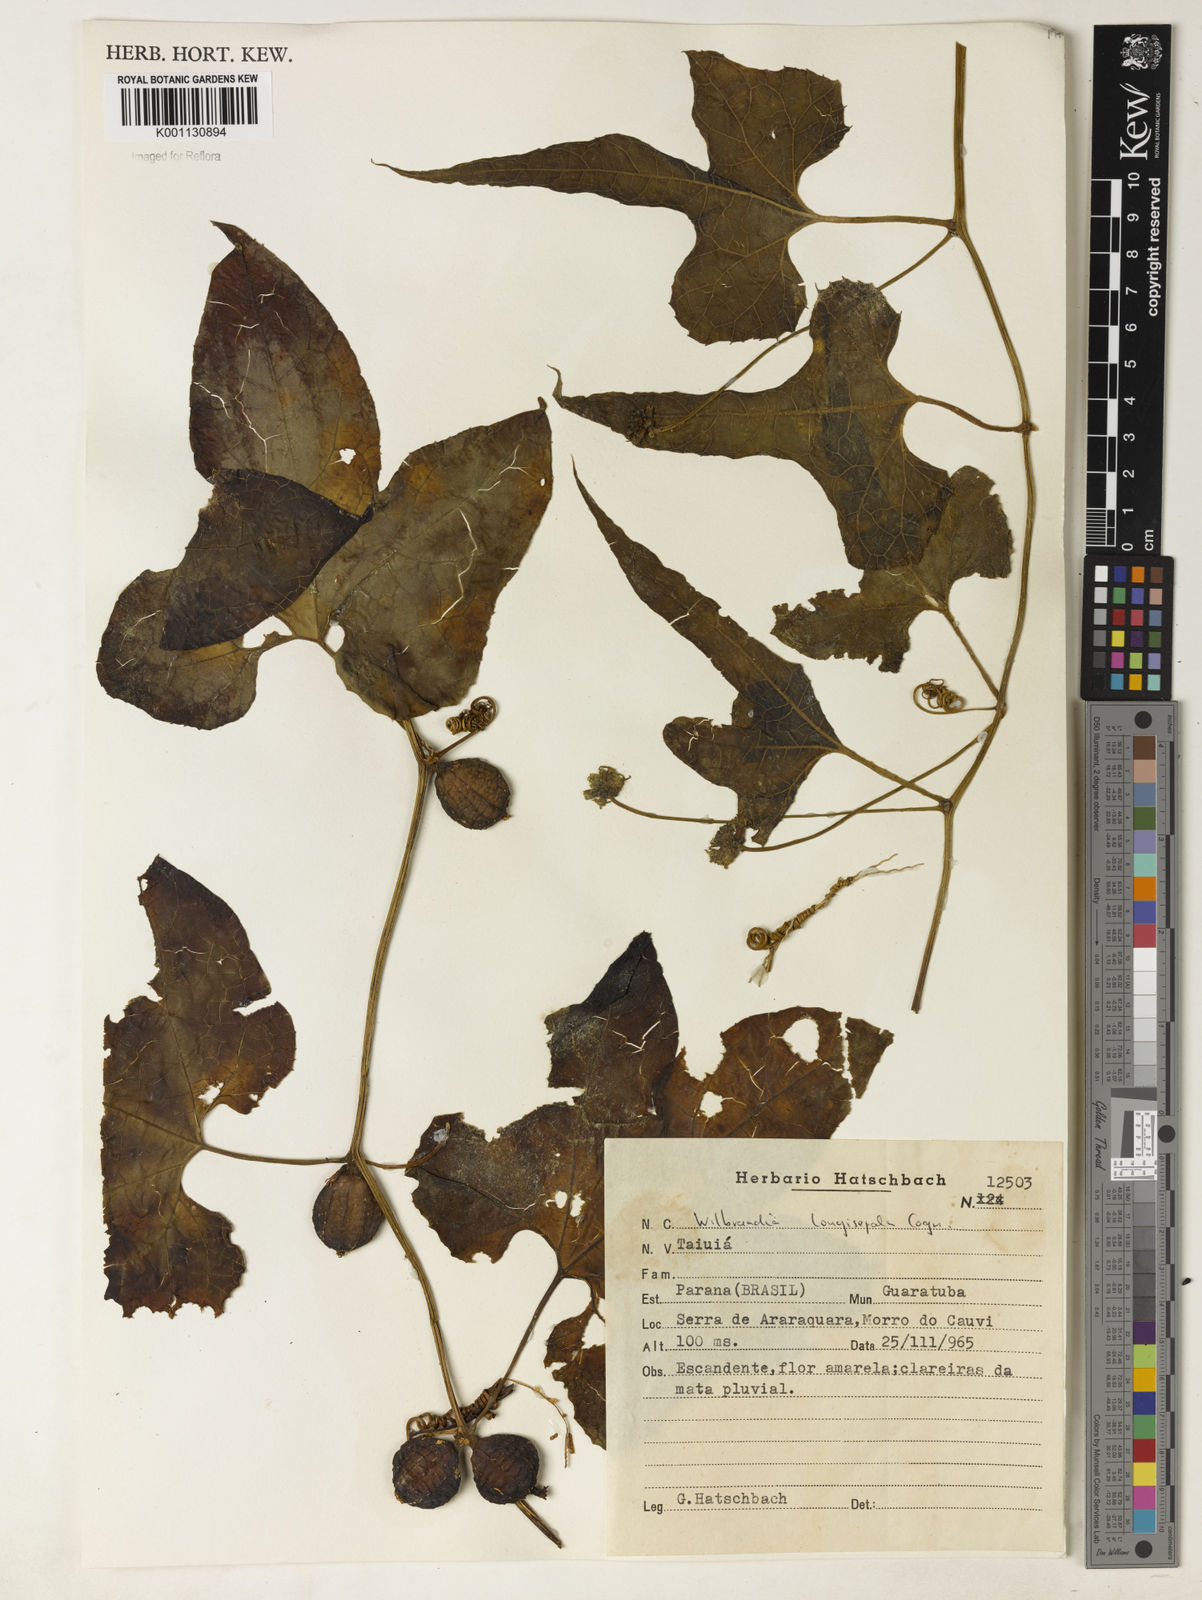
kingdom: Plantae
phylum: Tracheophyta
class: Magnoliopsida
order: Cucurbitales
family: Cucurbitaceae
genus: Wilbrandia
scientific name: Wilbrandia longisepala
